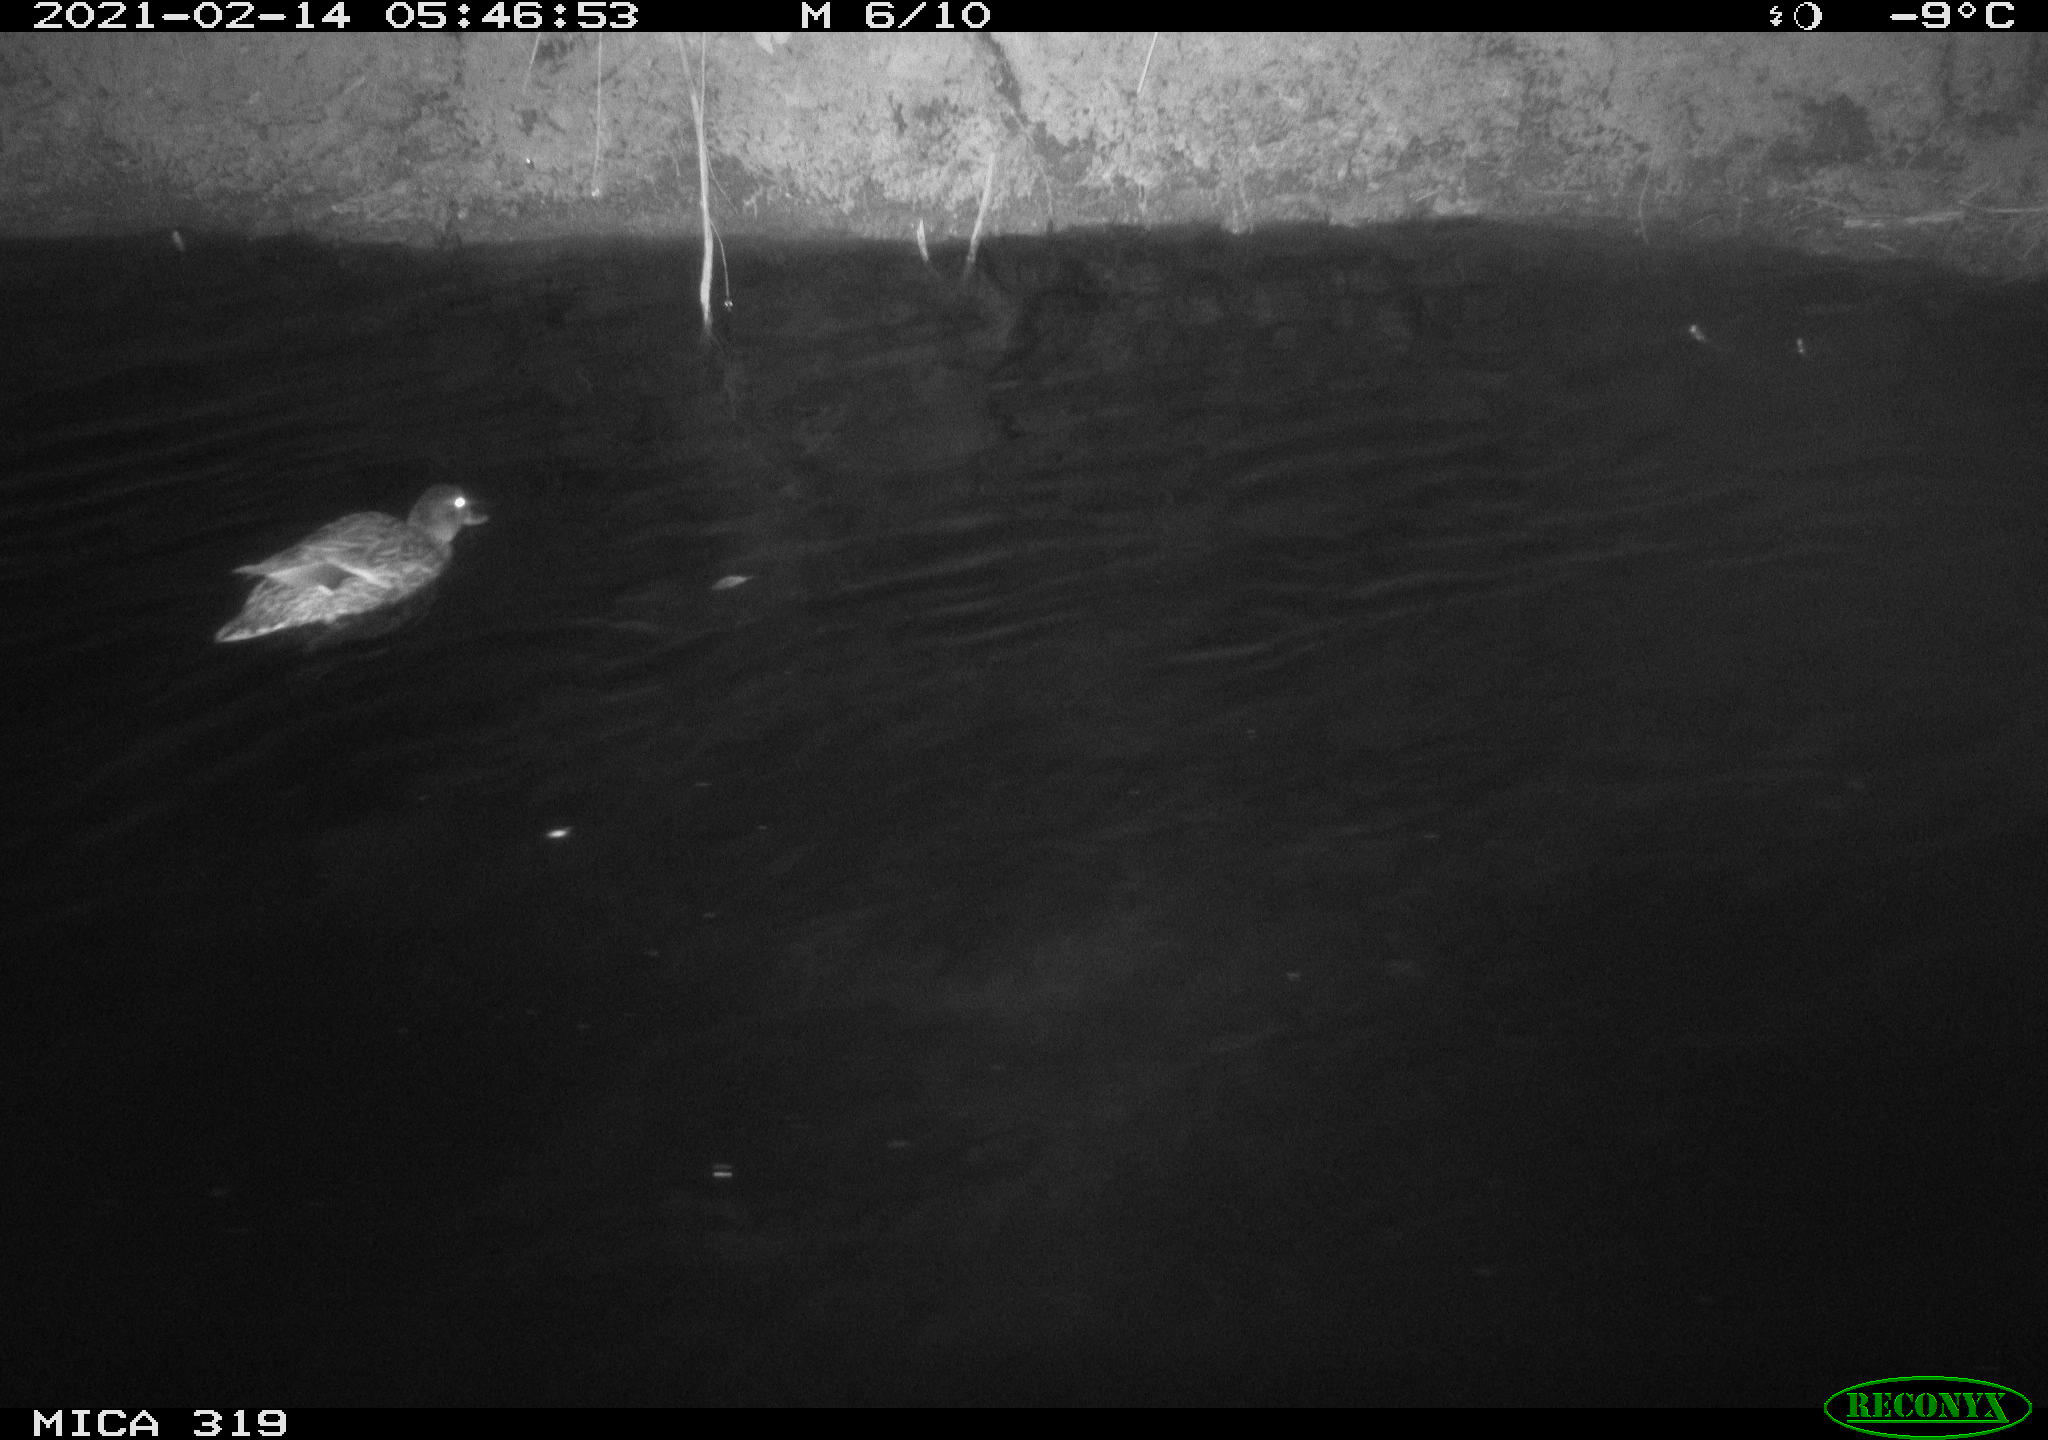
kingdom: Animalia
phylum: Chordata
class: Aves
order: Anseriformes
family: Anatidae
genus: Anas
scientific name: Anas platyrhynchos
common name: Mallard
